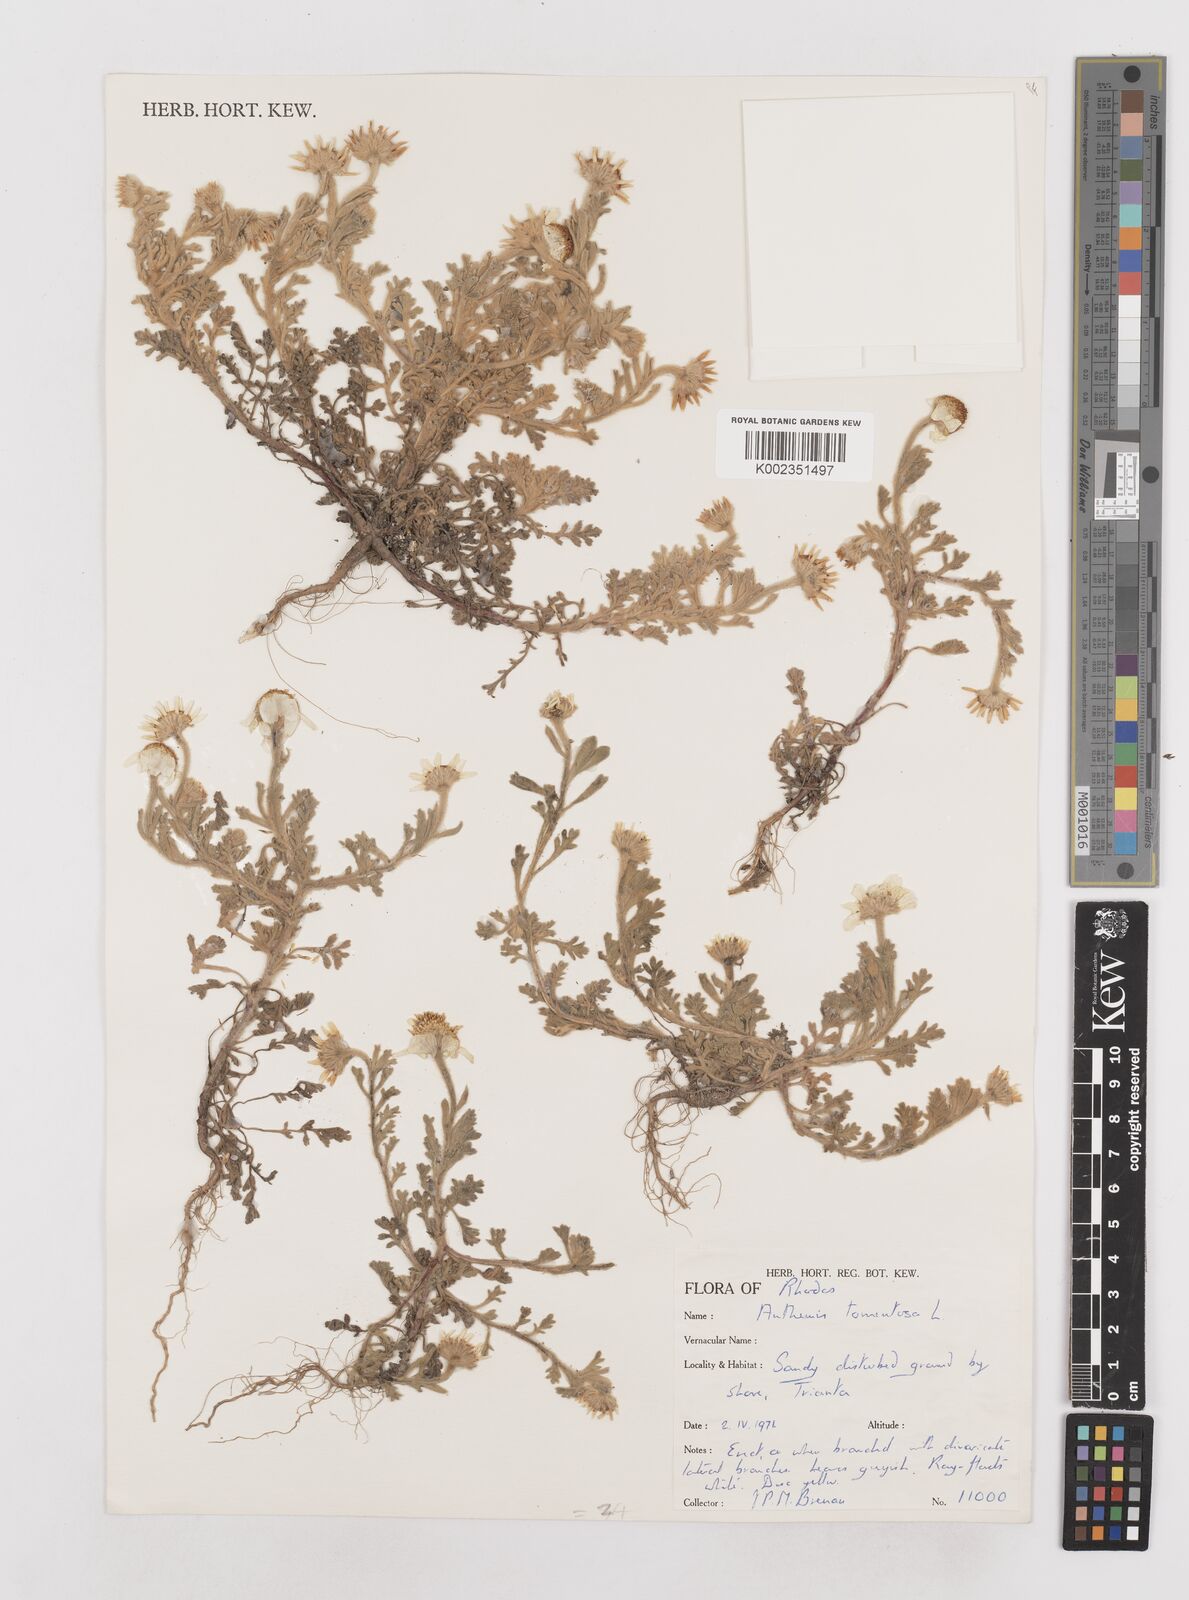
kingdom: Plantae
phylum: Tracheophyta
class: Magnoliopsida
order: Asterales
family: Asteraceae
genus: Anthemis
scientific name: Anthemis tomentosa
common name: Woolly chamomile
